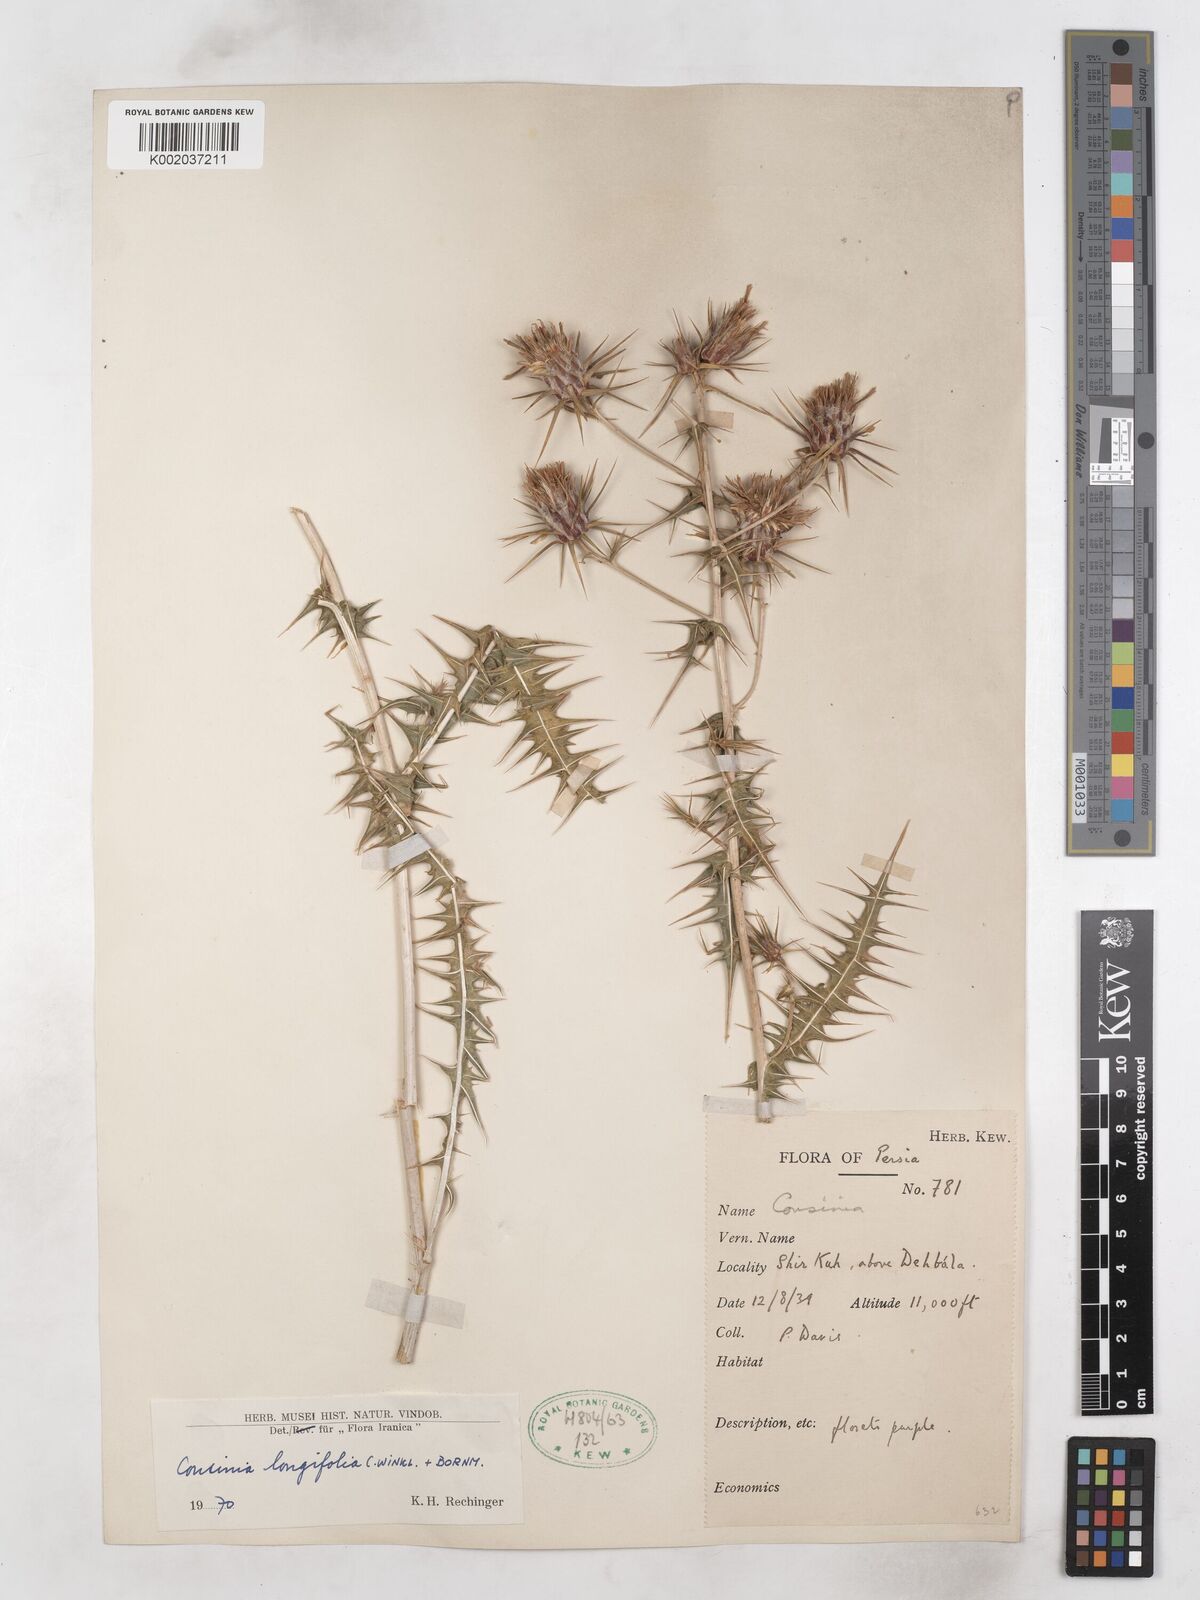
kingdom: Plantae
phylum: Tracheophyta
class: Magnoliopsida
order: Asterales
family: Asteraceae
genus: Cousinia
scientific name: Cousinia longifolia
